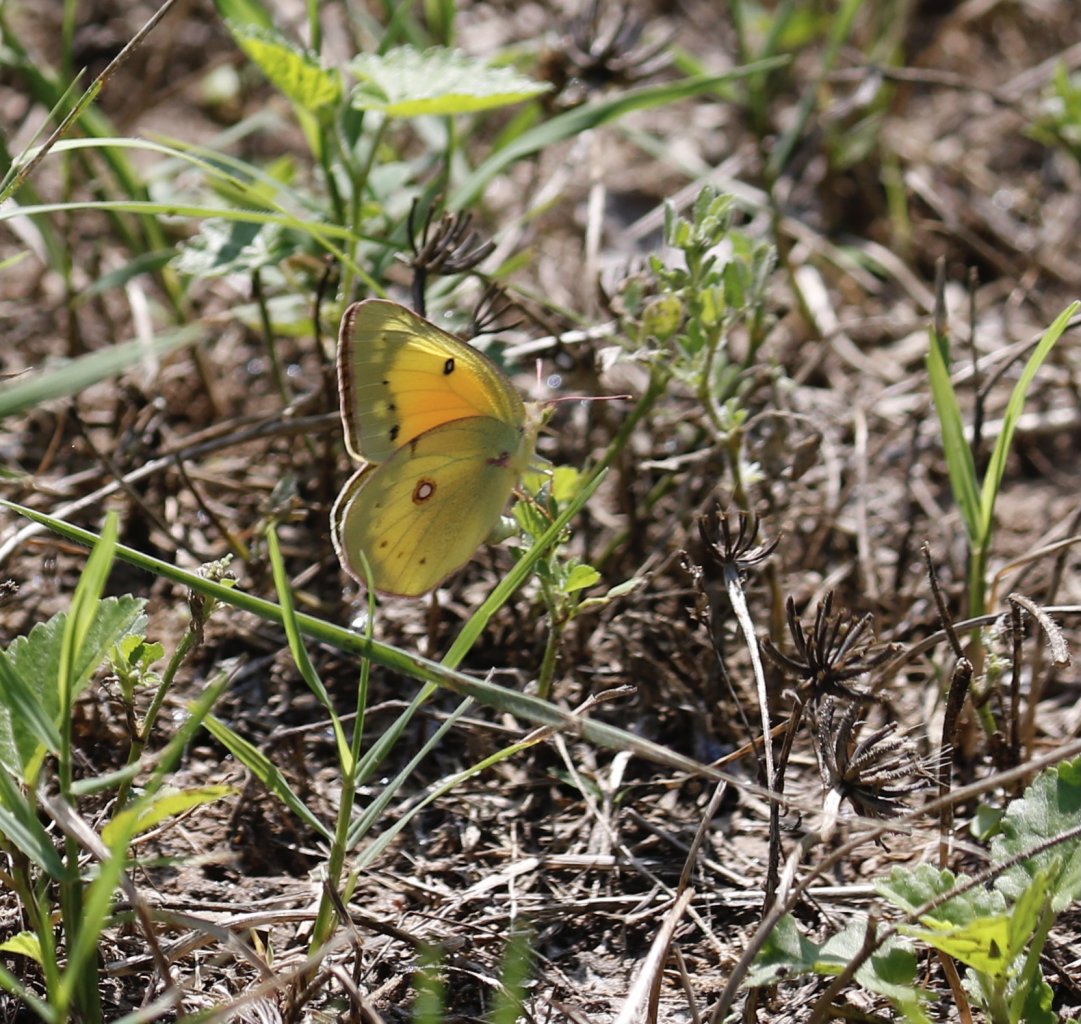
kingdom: Animalia
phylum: Arthropoda
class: Insecta
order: Lepidoptera
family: Pieridae
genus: Colias
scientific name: Colias eurytheme
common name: Orange Sulphur
